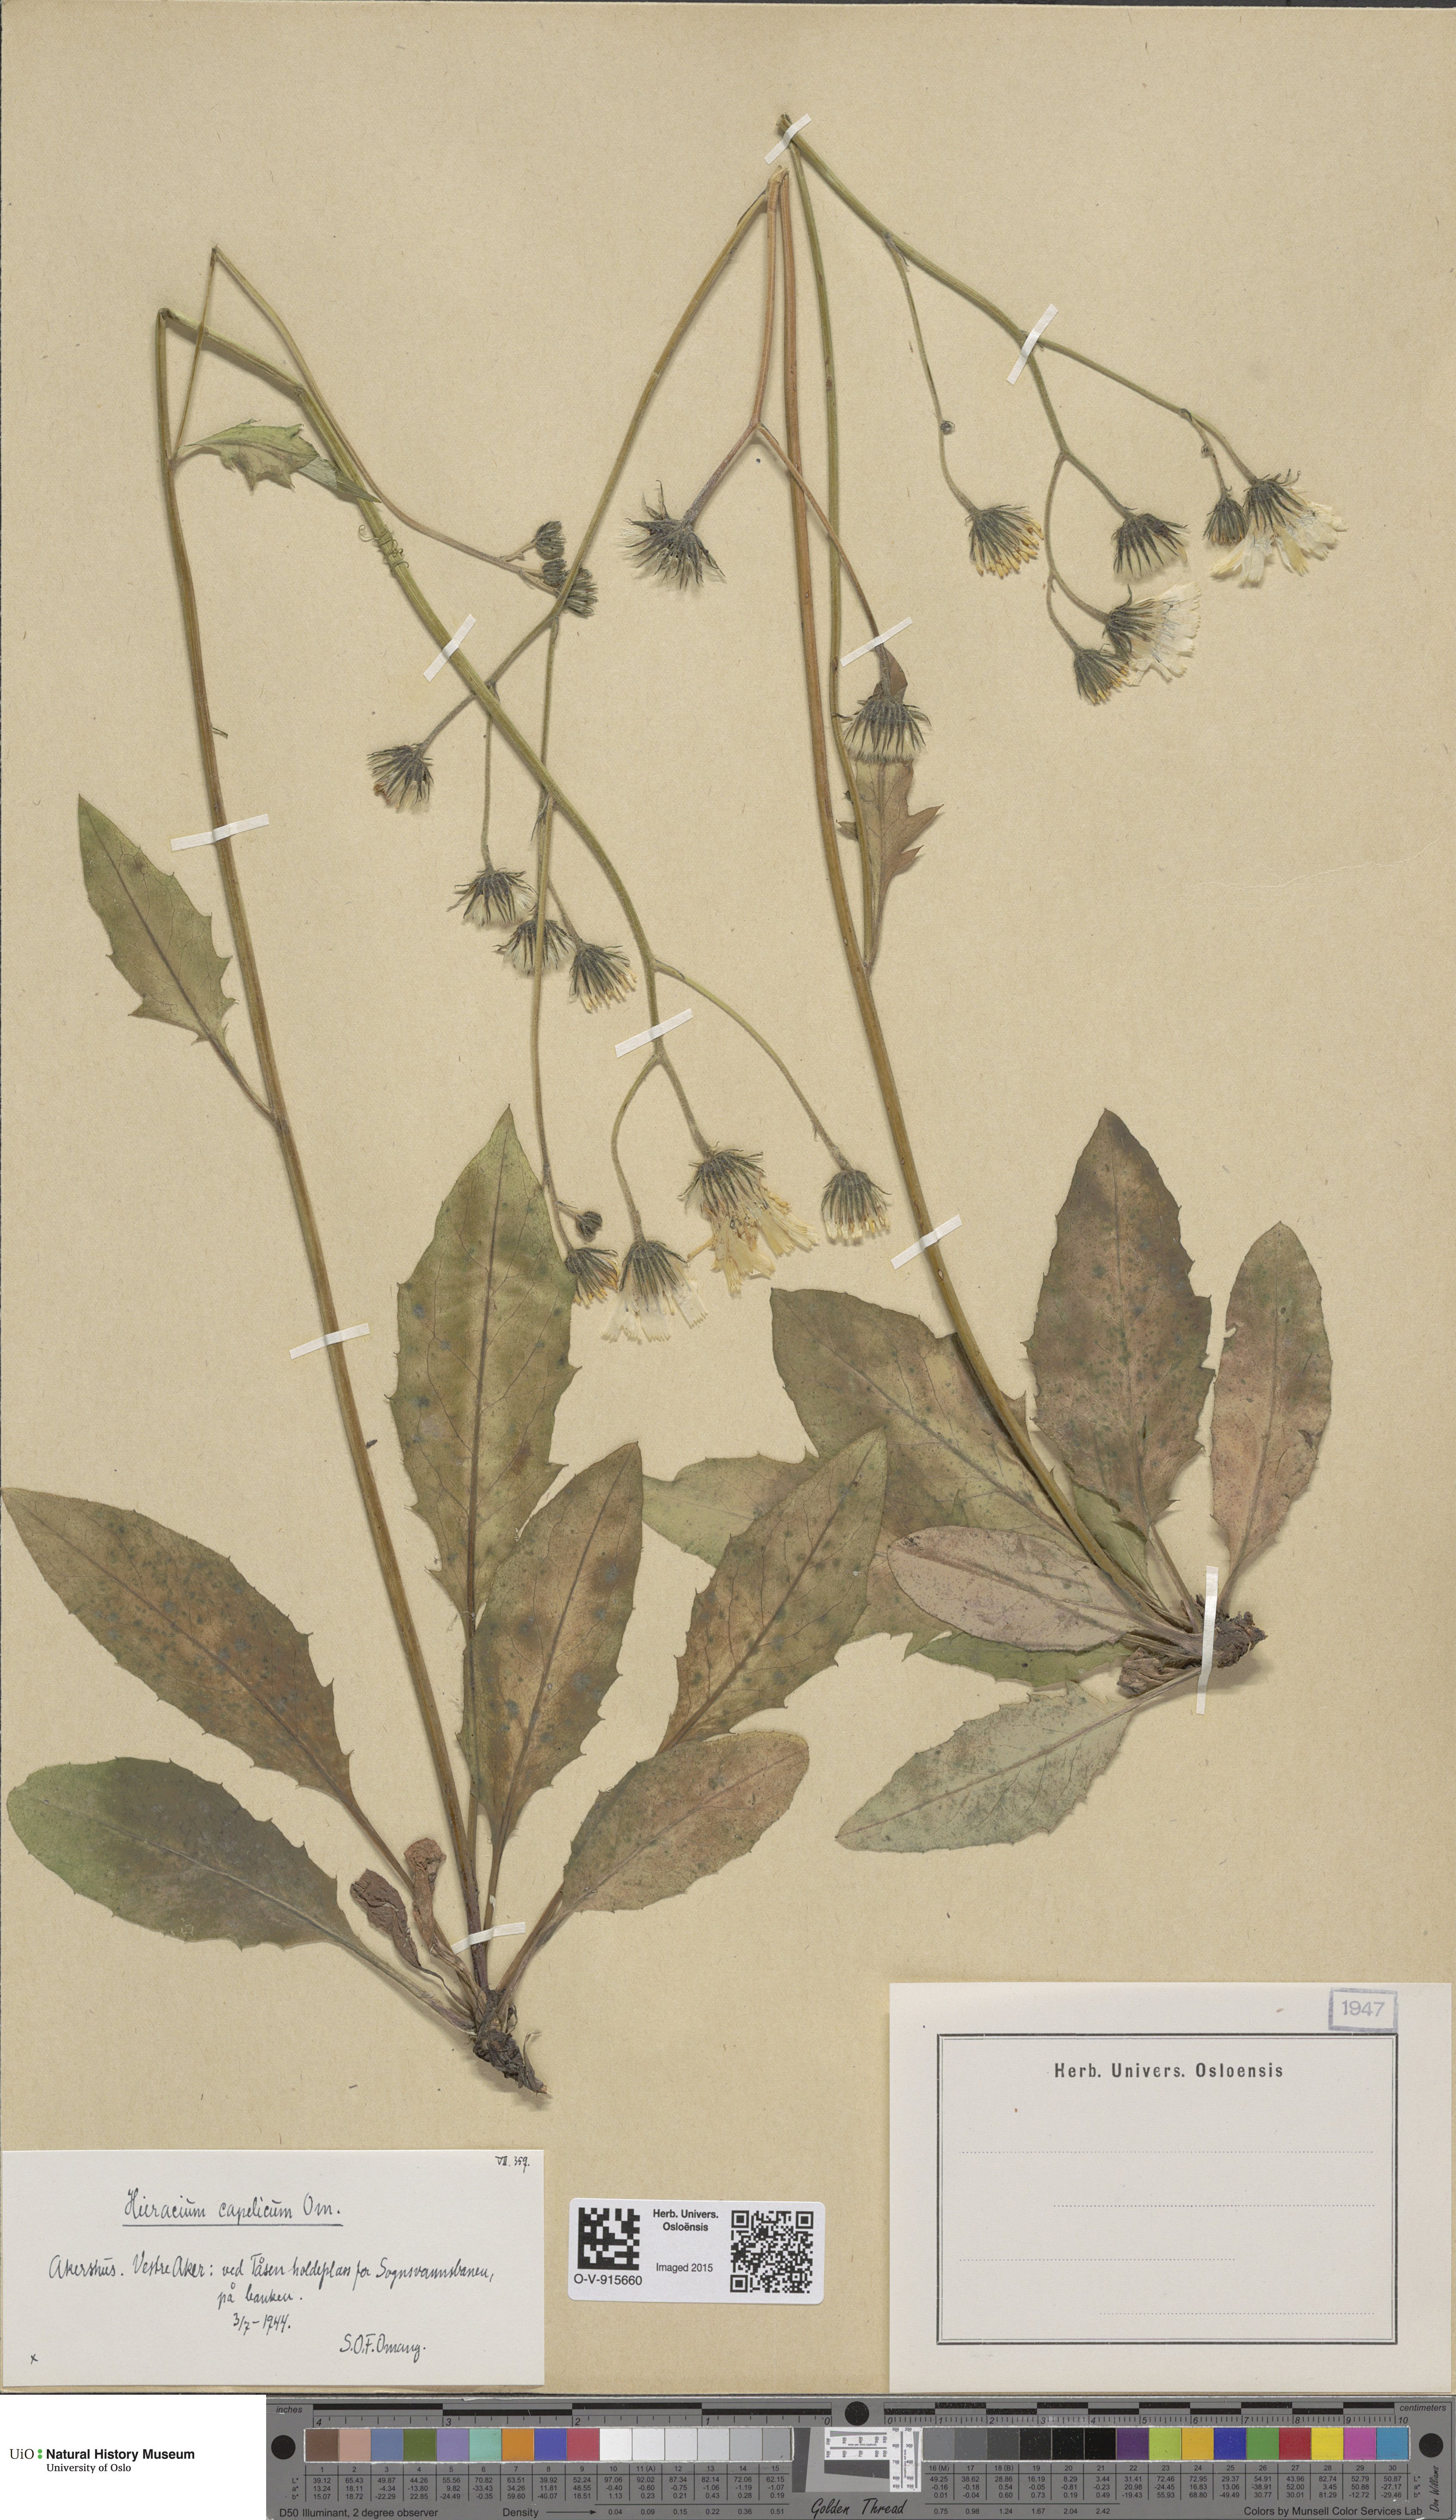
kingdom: Plantae
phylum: Tracheophyta
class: Magnoliopsida
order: Asterales
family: Asteraceae
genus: Hieracium
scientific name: Hieracium
